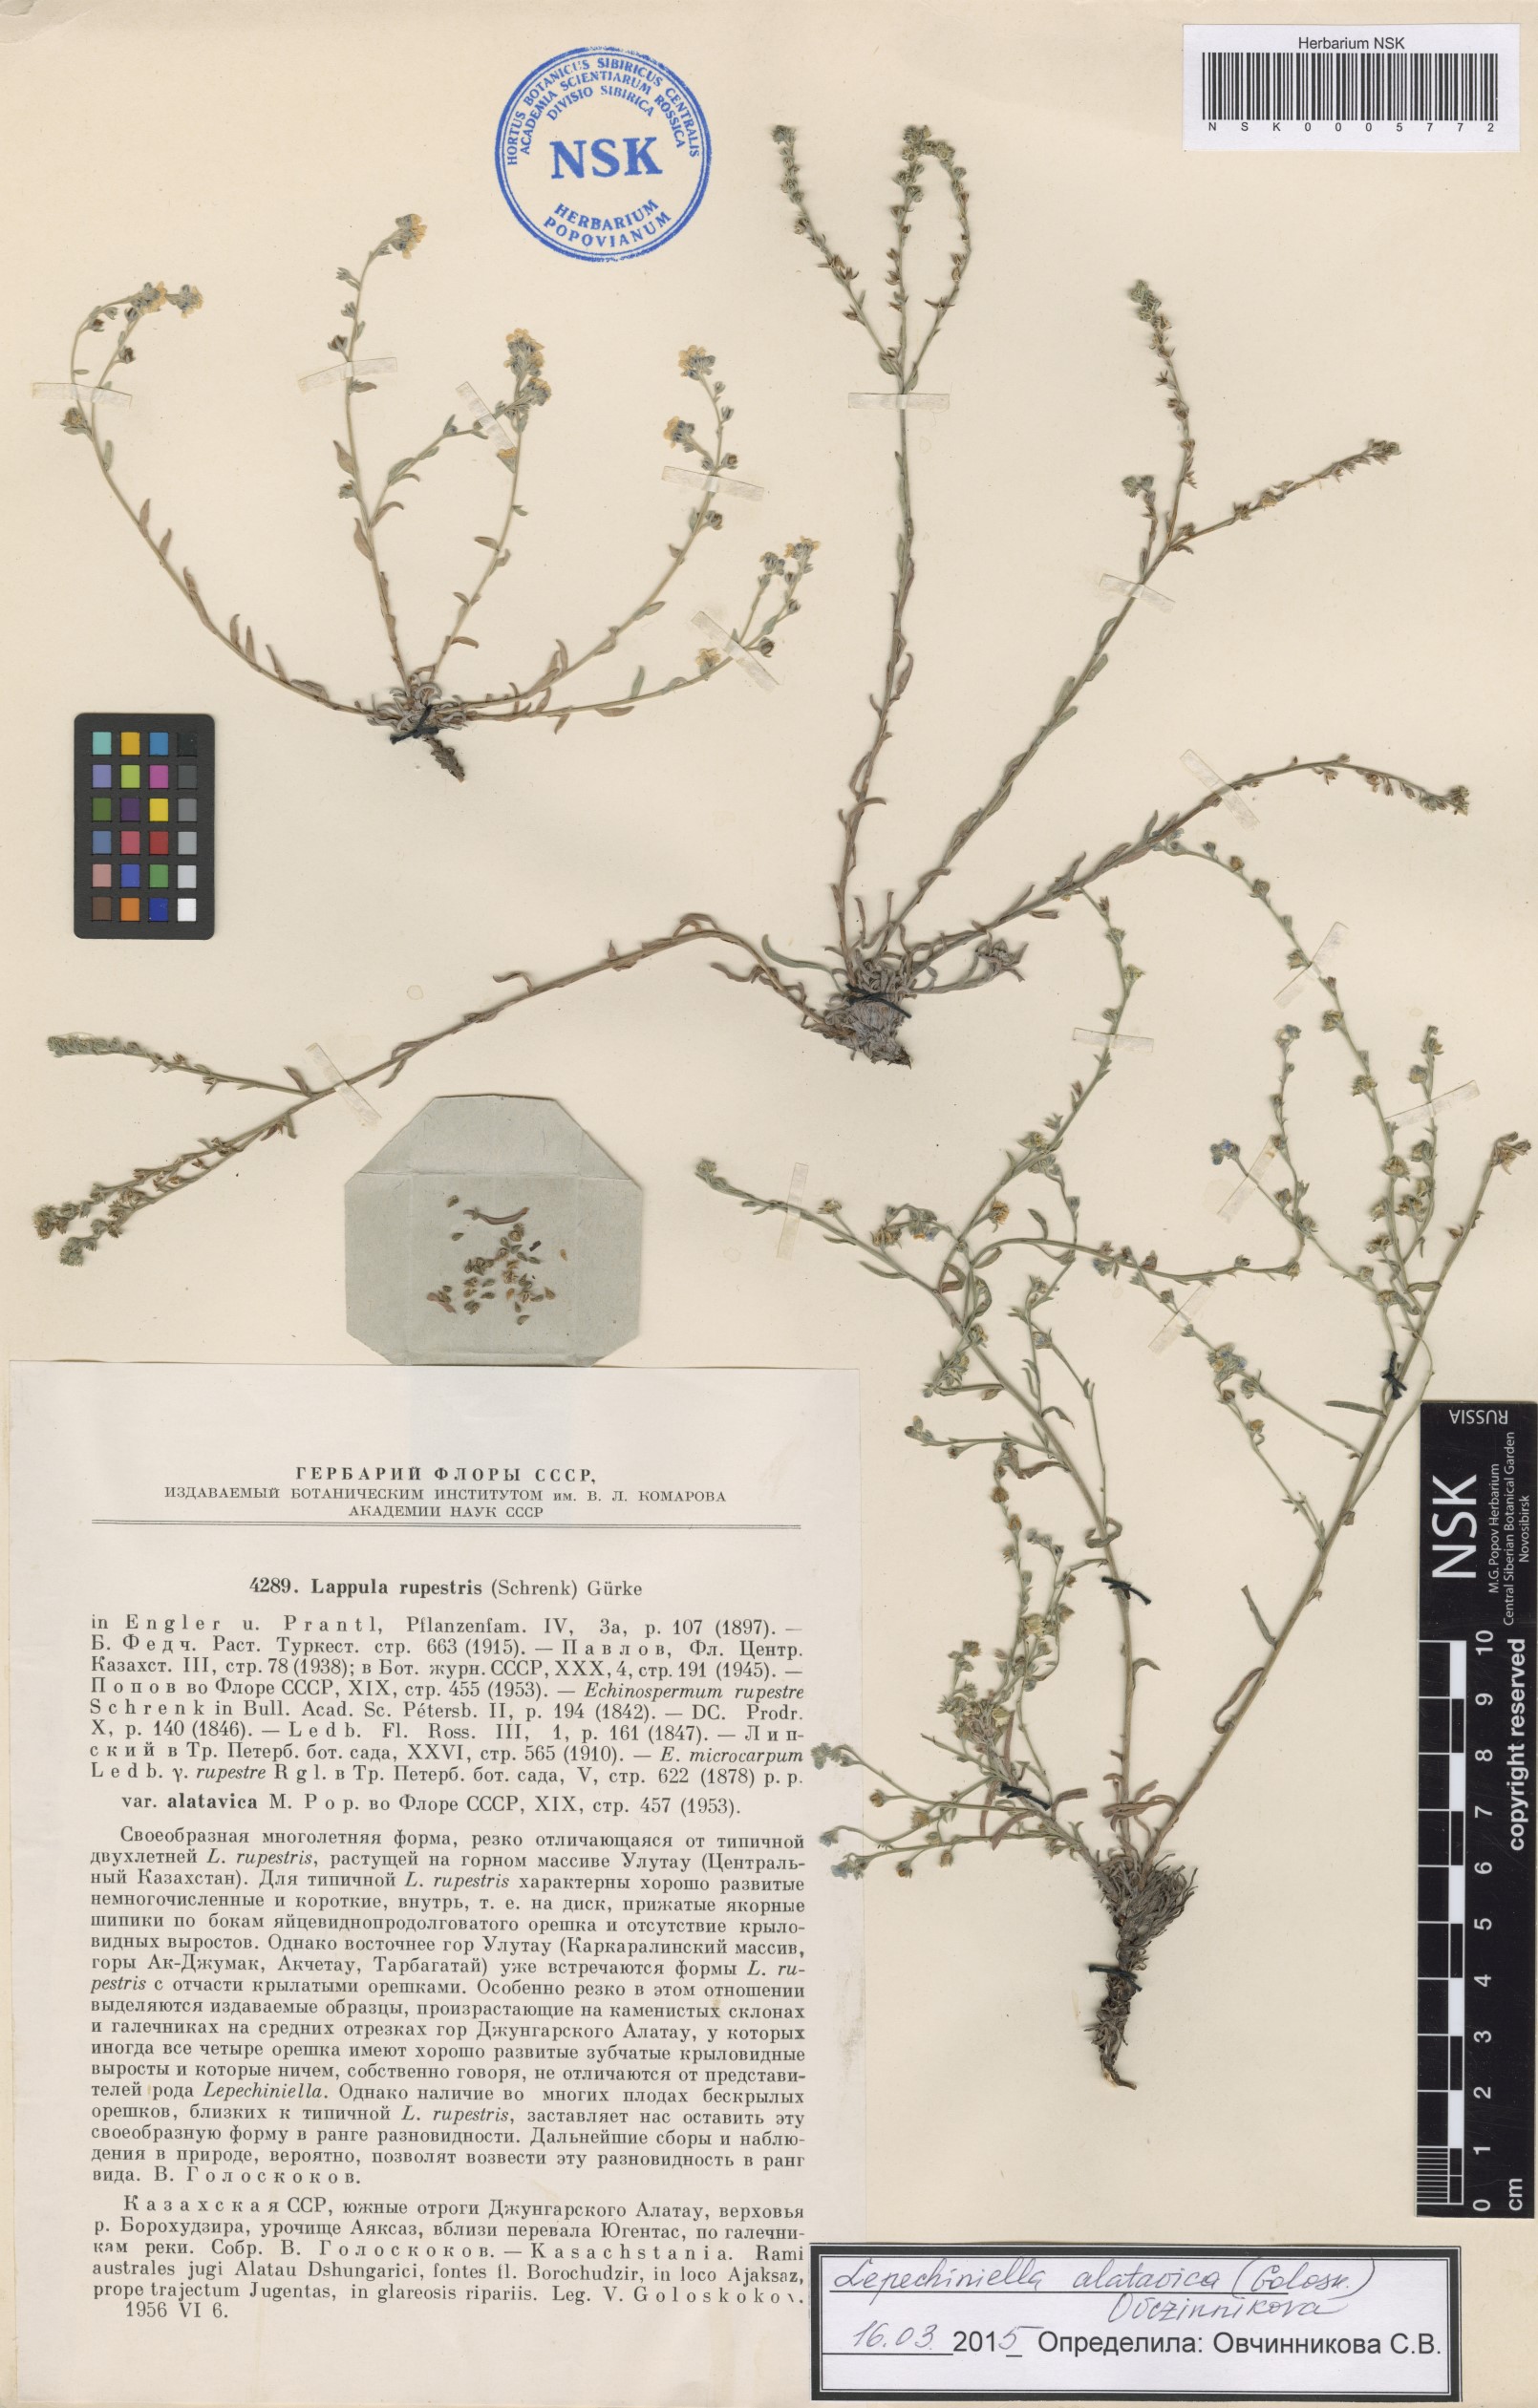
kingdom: Plantae
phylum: Tracheophyta
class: Magnoliopsida
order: Boraginales
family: Boraginaceae
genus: Lepechiniella
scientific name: Lepechiniella alatavica
